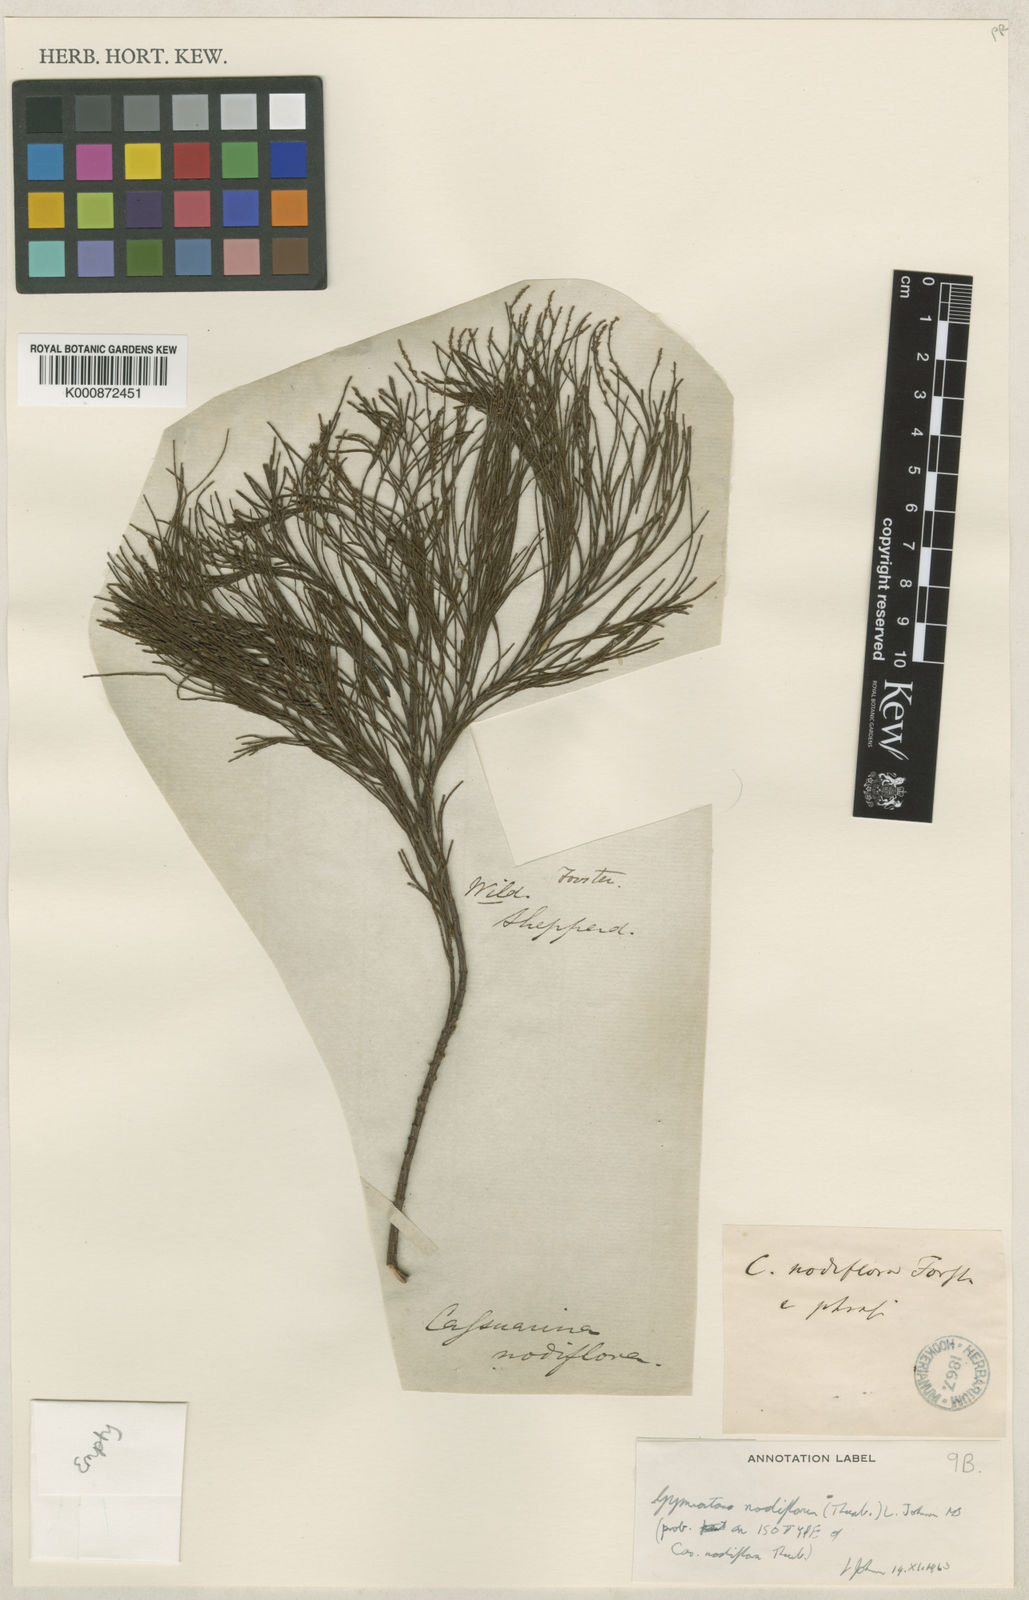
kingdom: Plantae
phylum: Tracheophyta
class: Magnoliopsida
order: Fagales
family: Casuarinaceae
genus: Gymnostoma
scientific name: Gymnostoma nodiflorum
